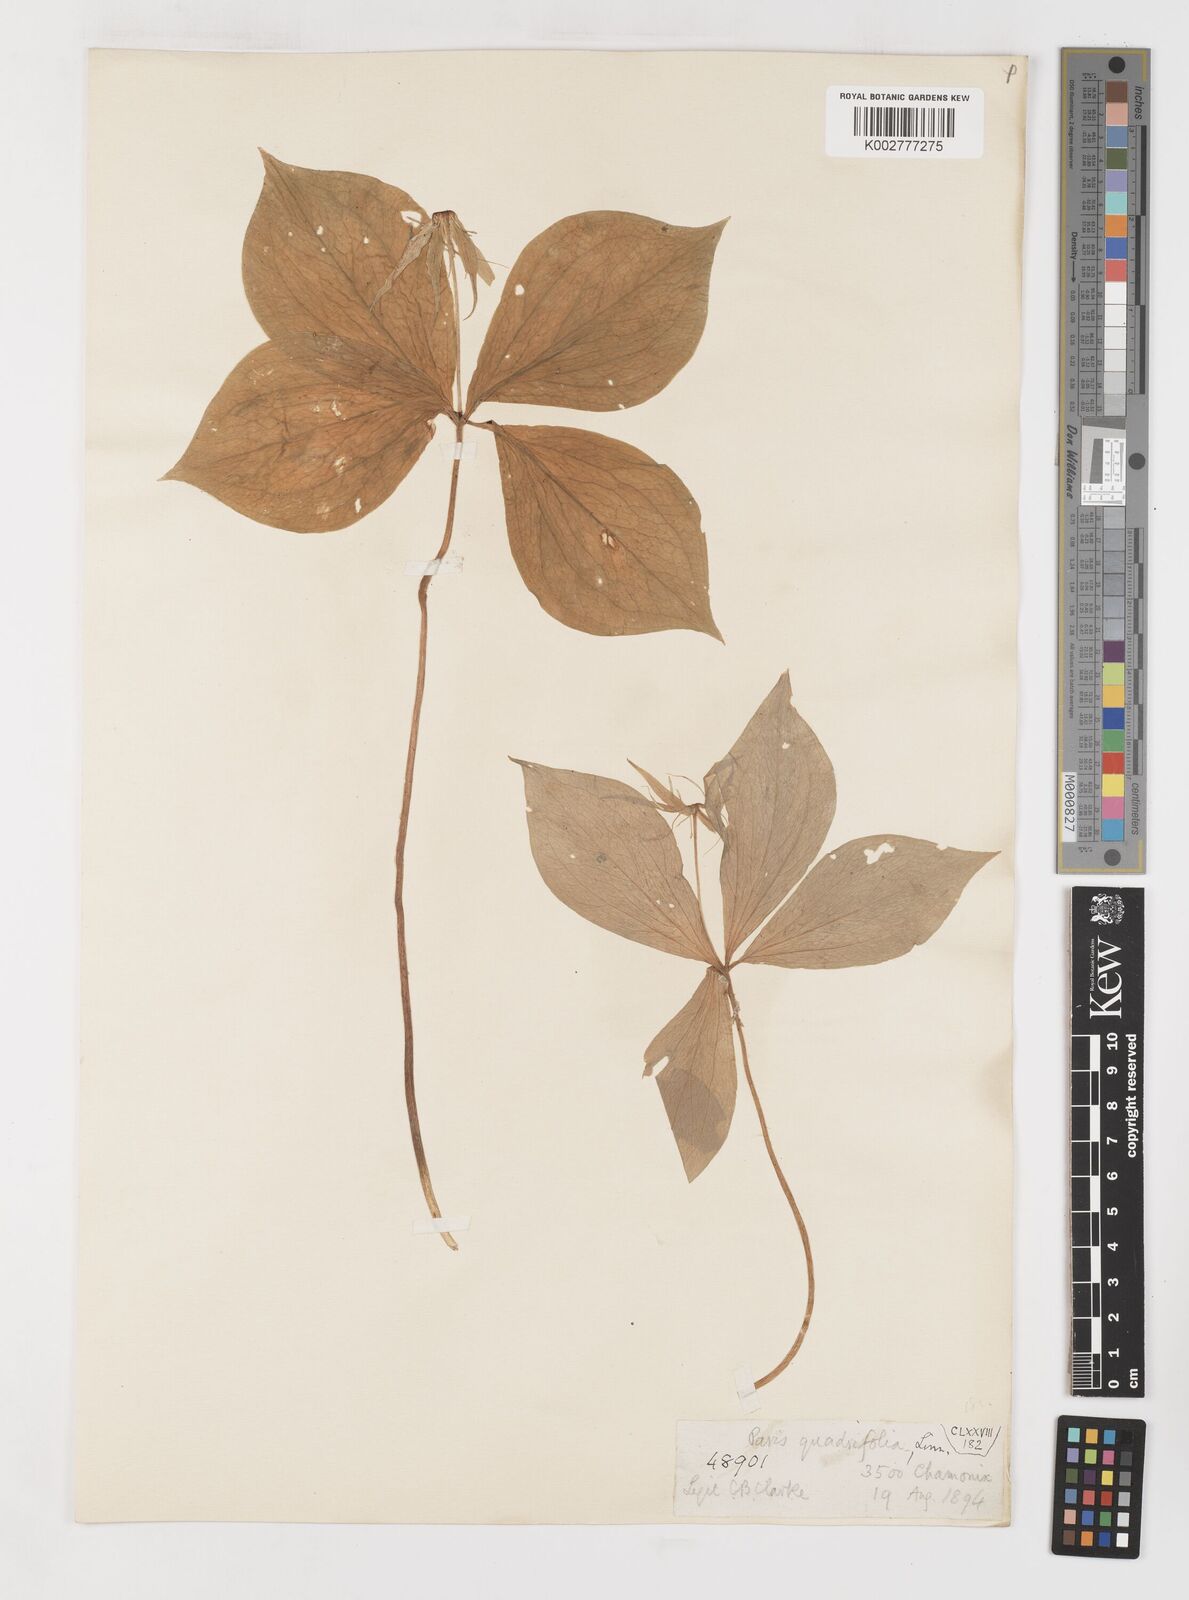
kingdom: Plantae
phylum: Tracheophyta
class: Liliopsida
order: Liliales
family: Melanthiaceae
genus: Paris
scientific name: Paris quadrifolia
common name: Herb-paris
